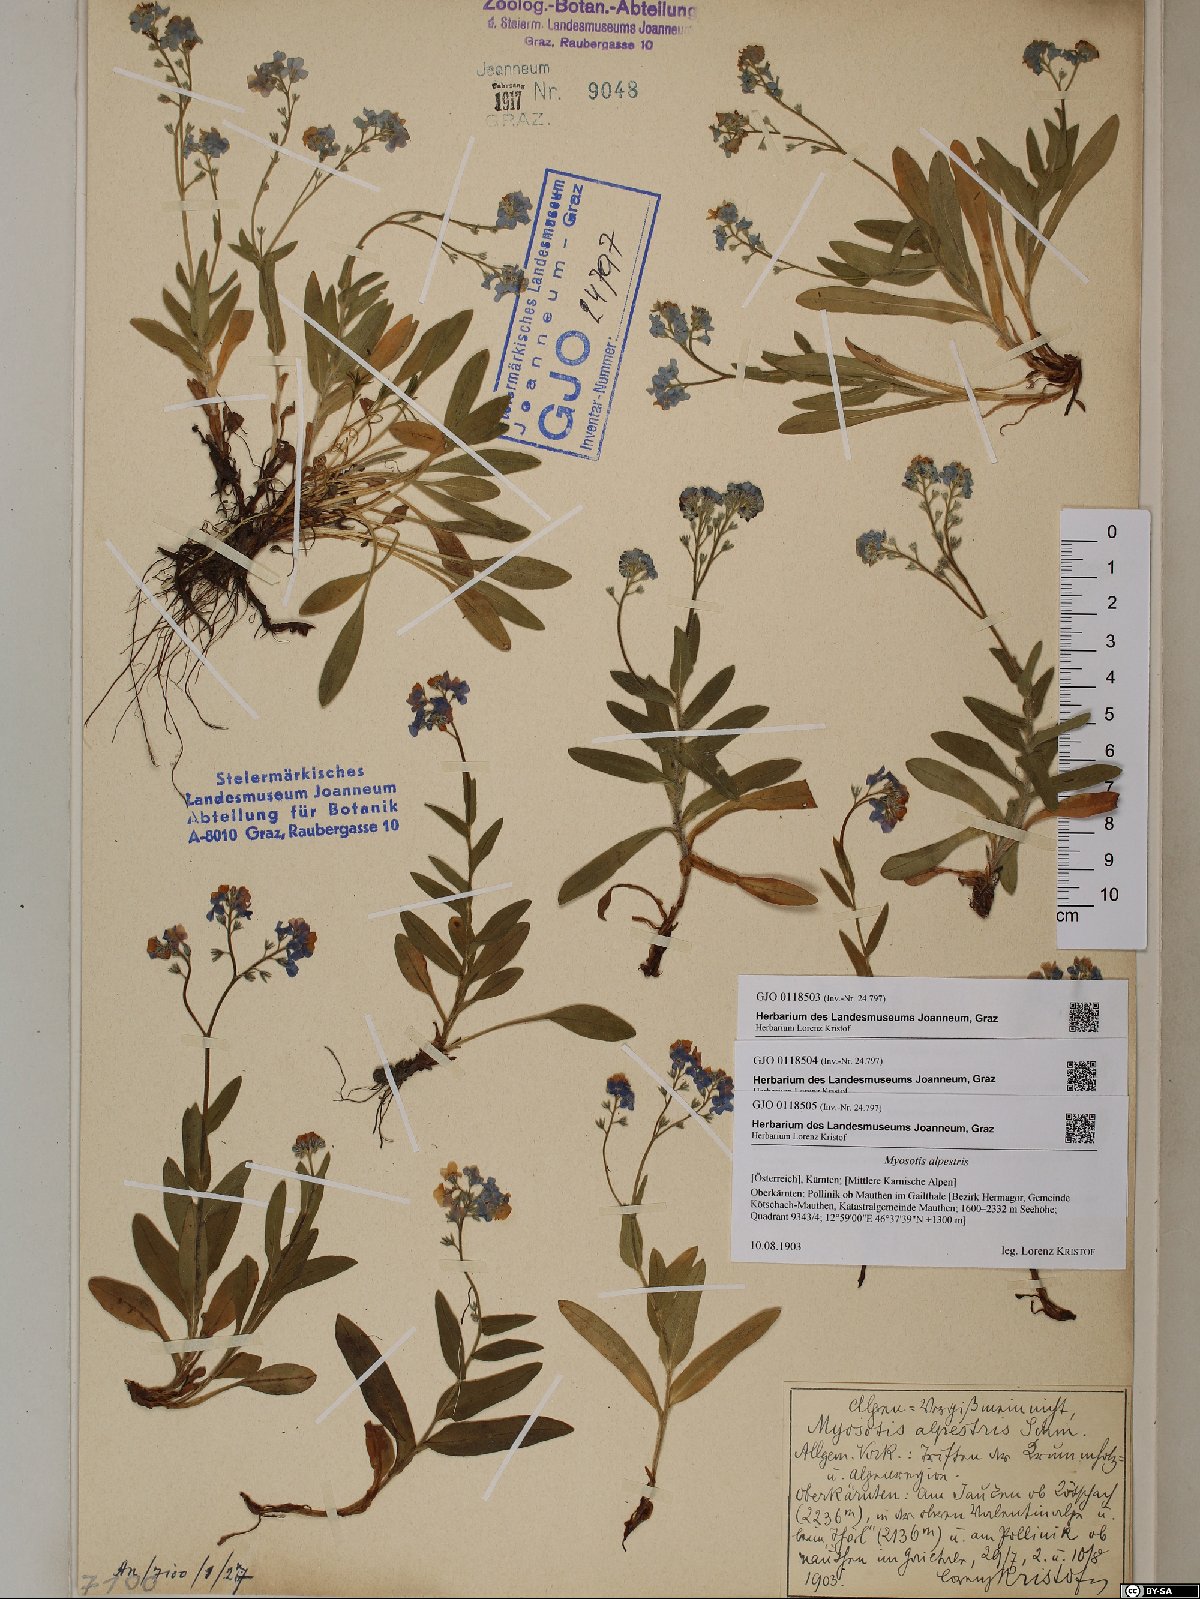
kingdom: Plantae
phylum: Tracheophyta
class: Magnoliopsida
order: Boraginales
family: Boraginaceae
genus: Myosotis
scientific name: Myosotis alpestris
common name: Alpine forget-me-not
